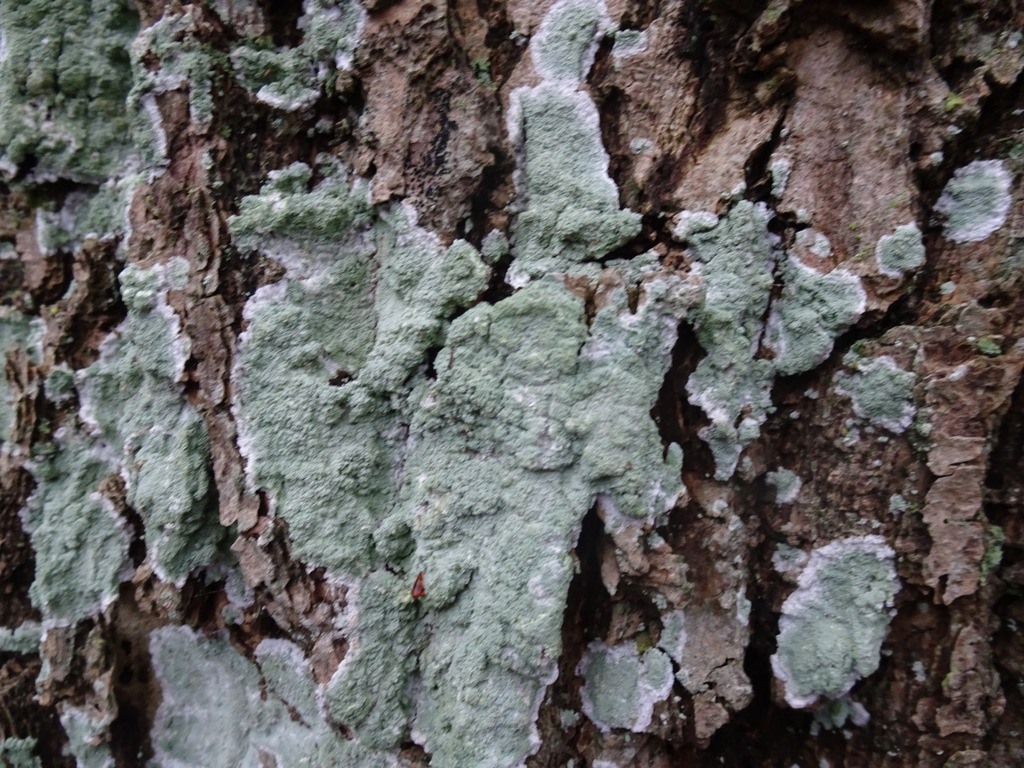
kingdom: Fungi
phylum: Ascomycota
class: Lecanoromycetes
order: Lecanorales
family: Haematommataceae
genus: Haematomma
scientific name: Haematomma ochroleucum
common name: gul trådkantlav
